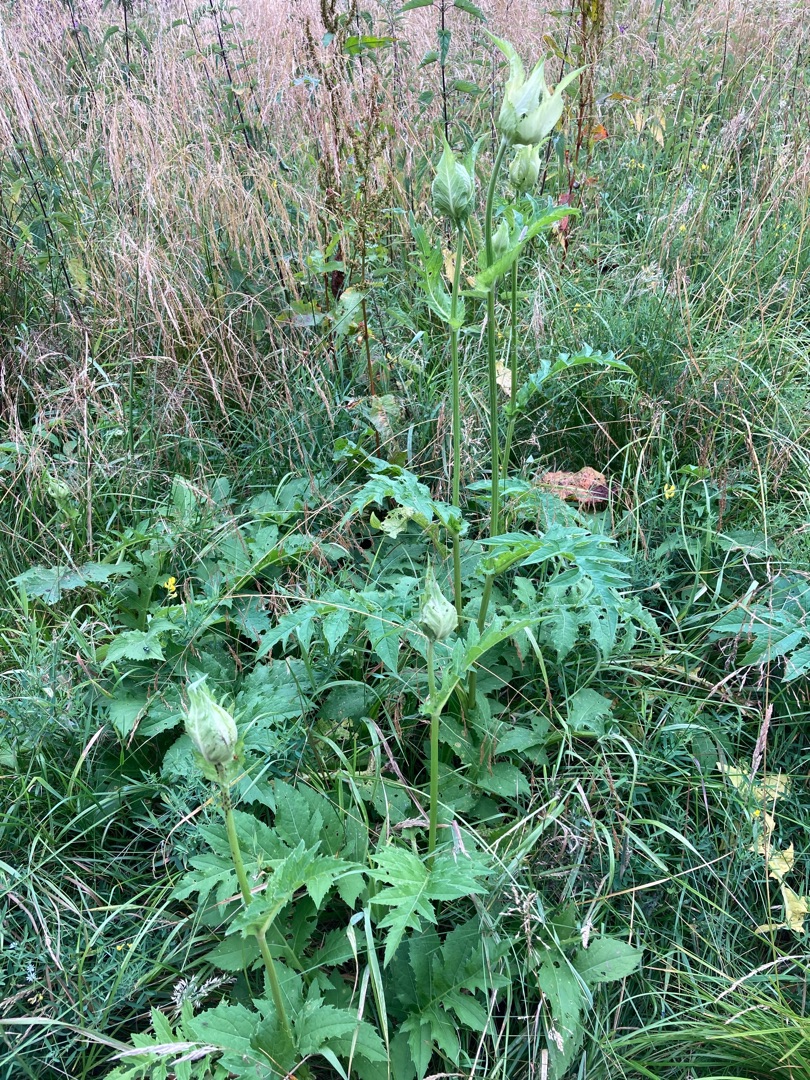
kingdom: Plantae
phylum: Tracheophyta
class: Magnoliopsida
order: Asterales
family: Asteraceae
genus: Cirsium
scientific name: Cirsium oleraceum
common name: Kål-tidsel
